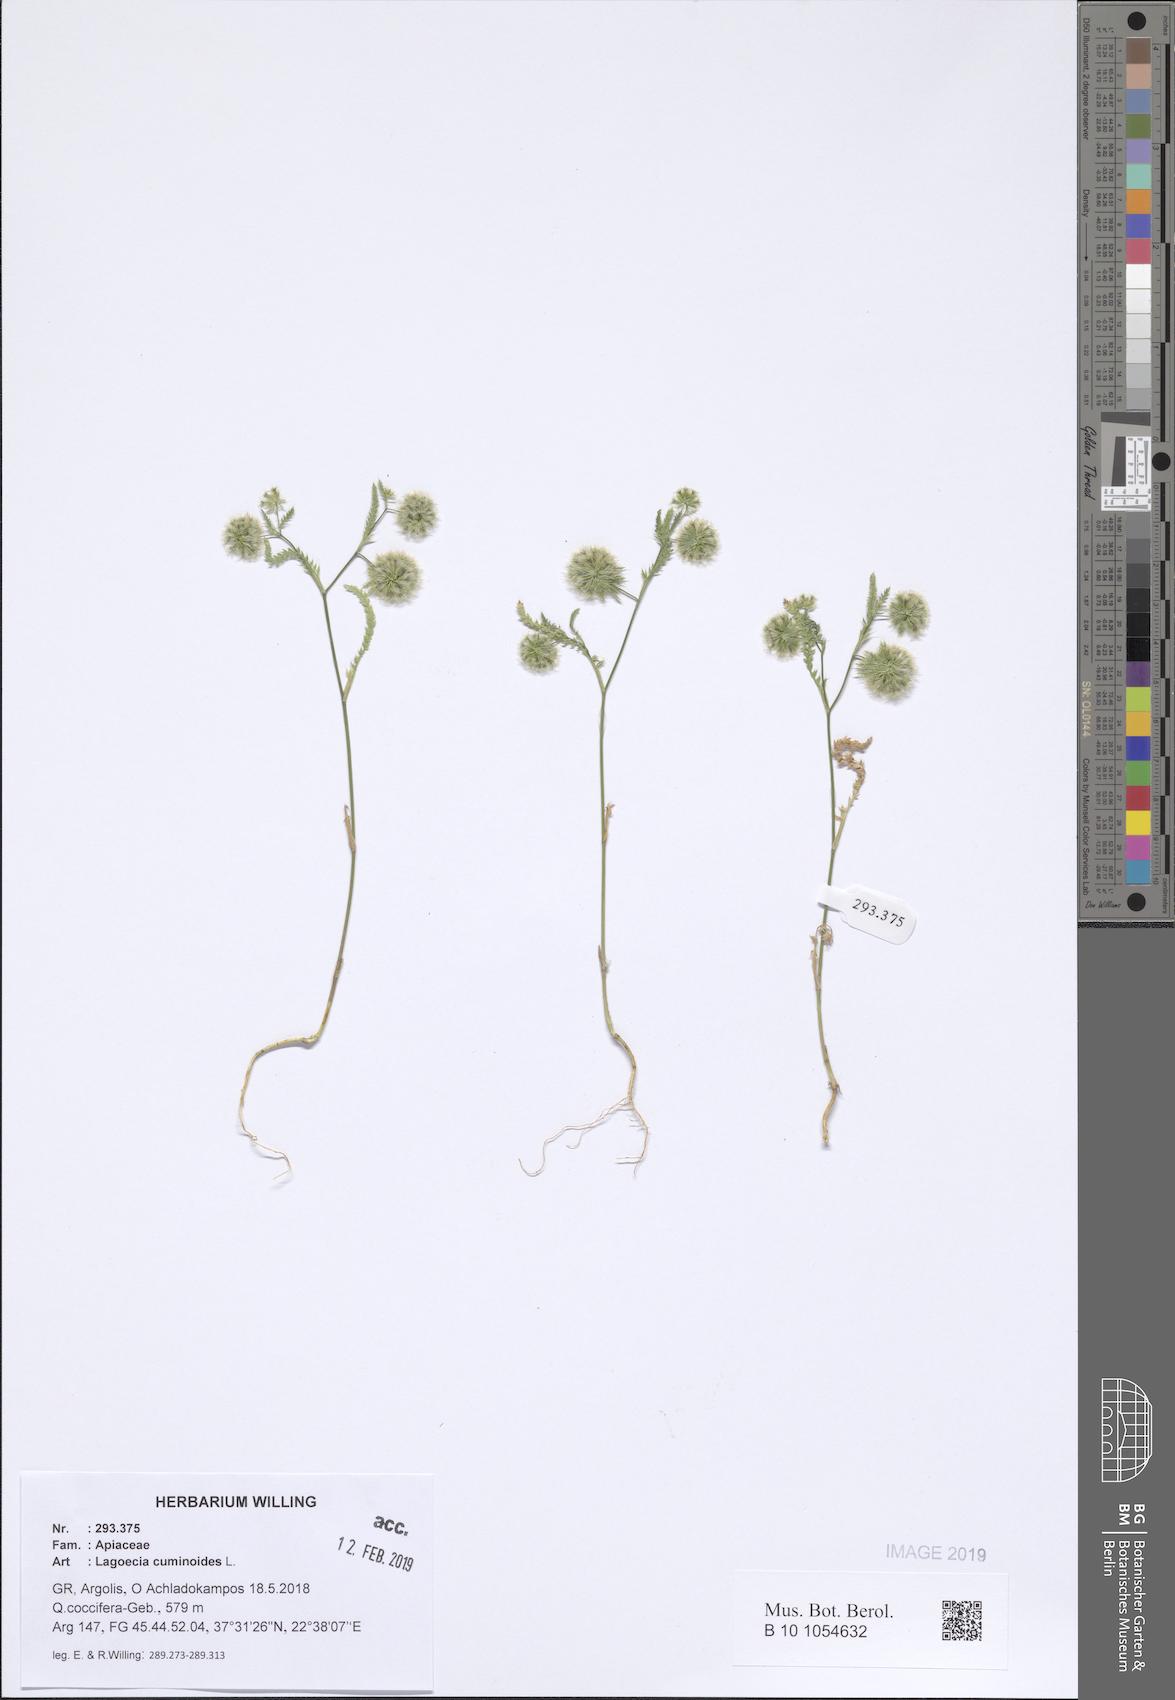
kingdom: Plantae
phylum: Tracheophyta
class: Magnoliopsida
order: Apiales
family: Apiaceae
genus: Lagoecia
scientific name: Lagoecia cuminoides
